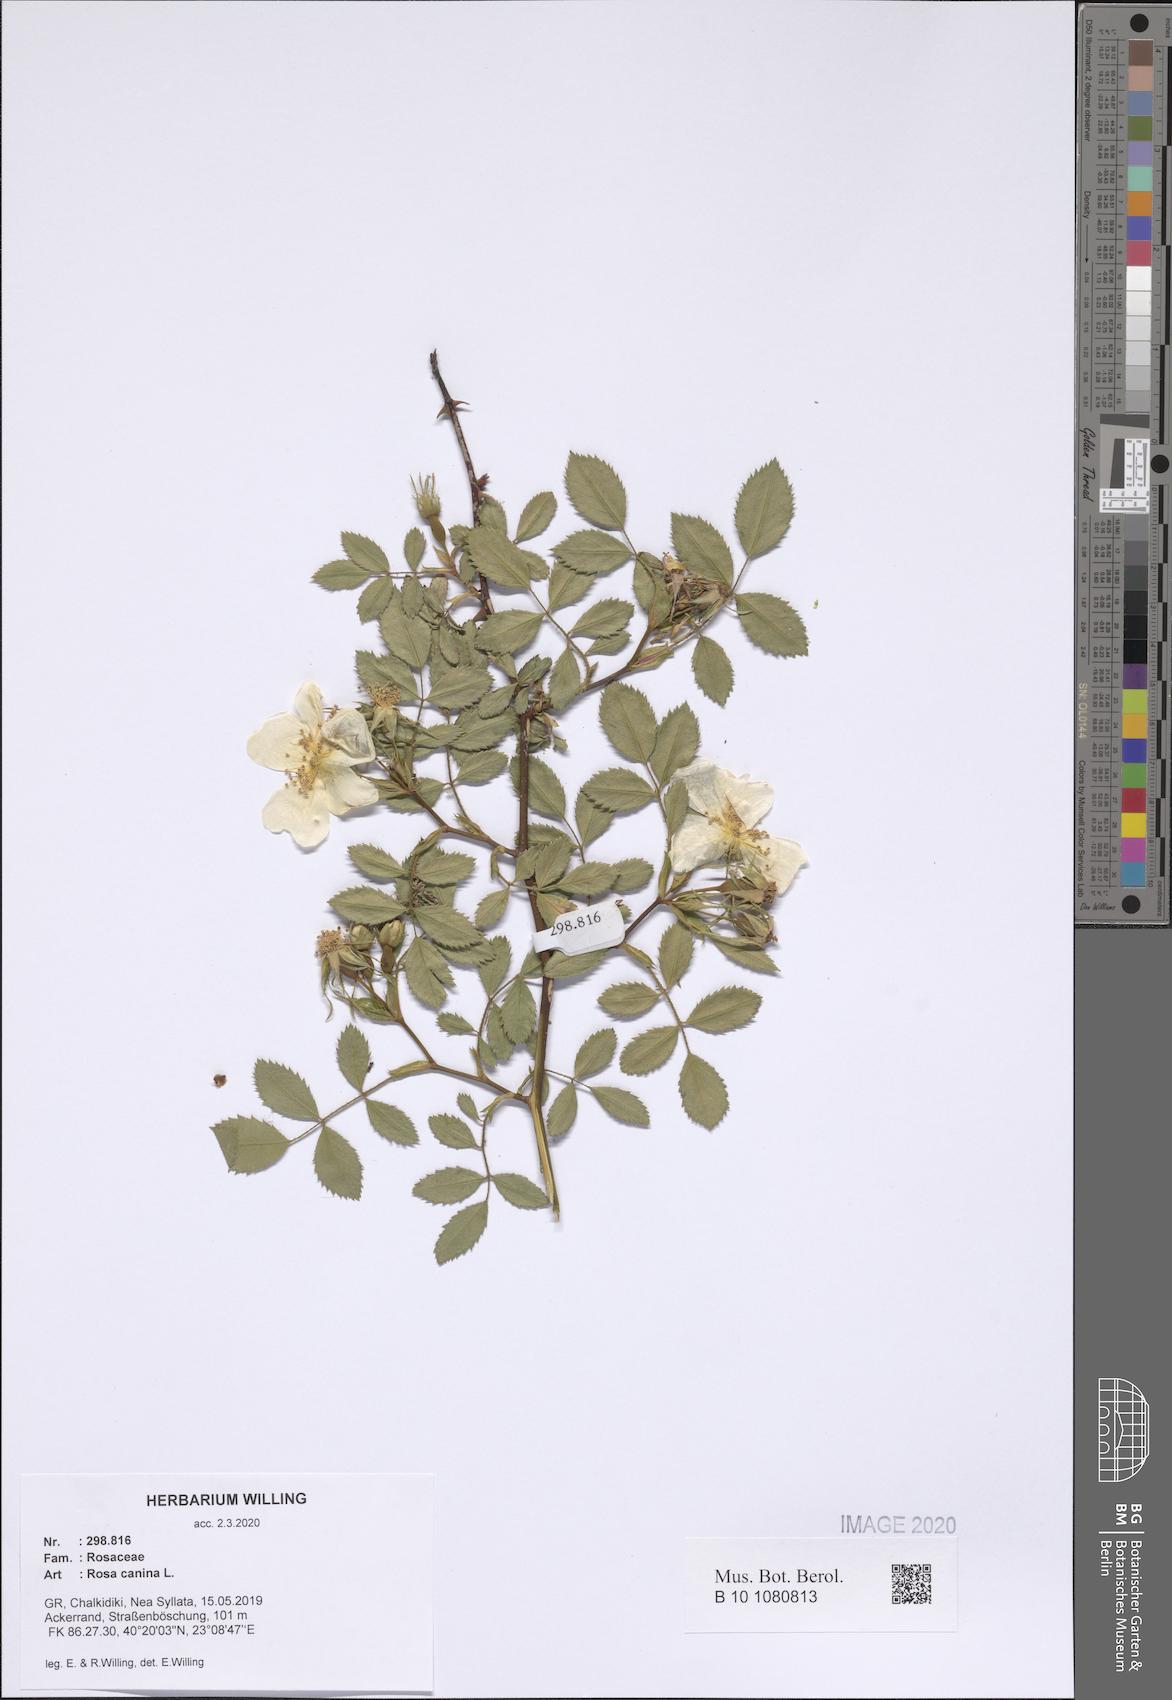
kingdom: Plantae
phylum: Tracheophyta
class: Magnoliopsida
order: Rosales
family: Rosaceae
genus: Rosa
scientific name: Rosa canina
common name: Dog rose
